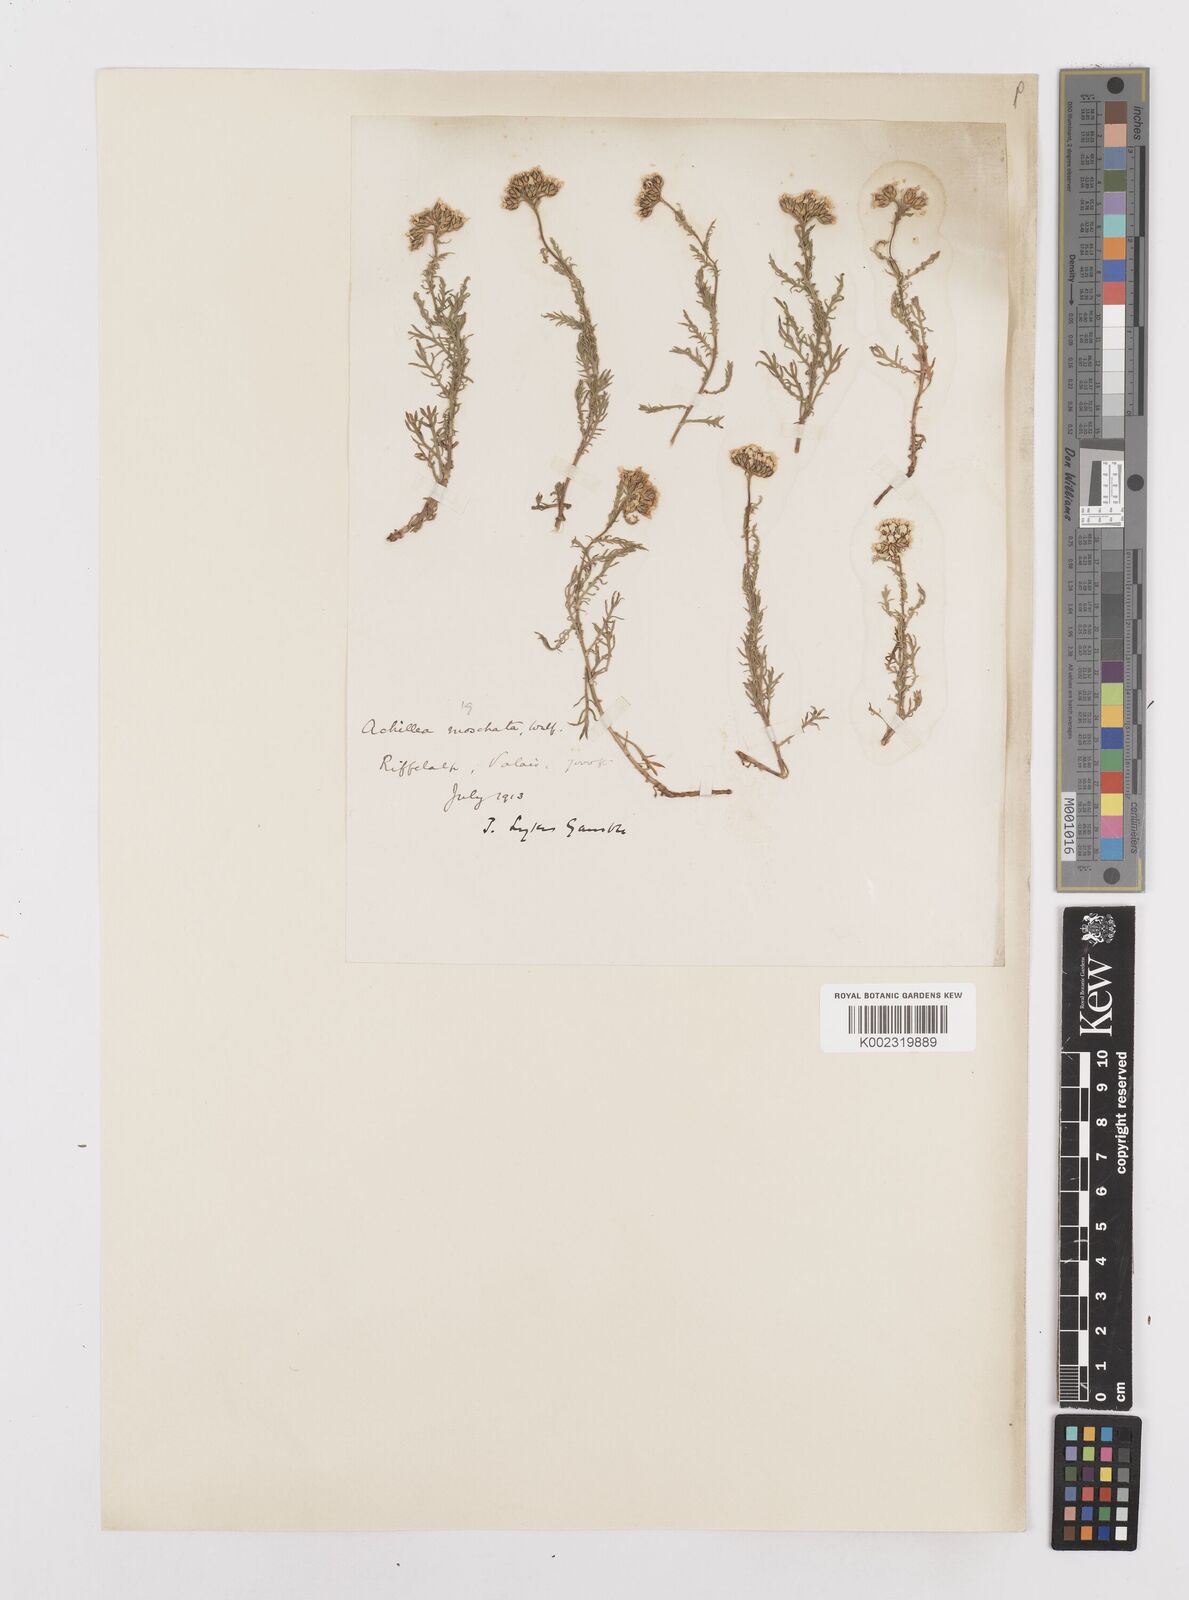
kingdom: Plantae
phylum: Tracheophyta
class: Magnoliopsida
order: Asterales
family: Asteraceae
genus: Achillea
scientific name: Achillea erba-rotta
